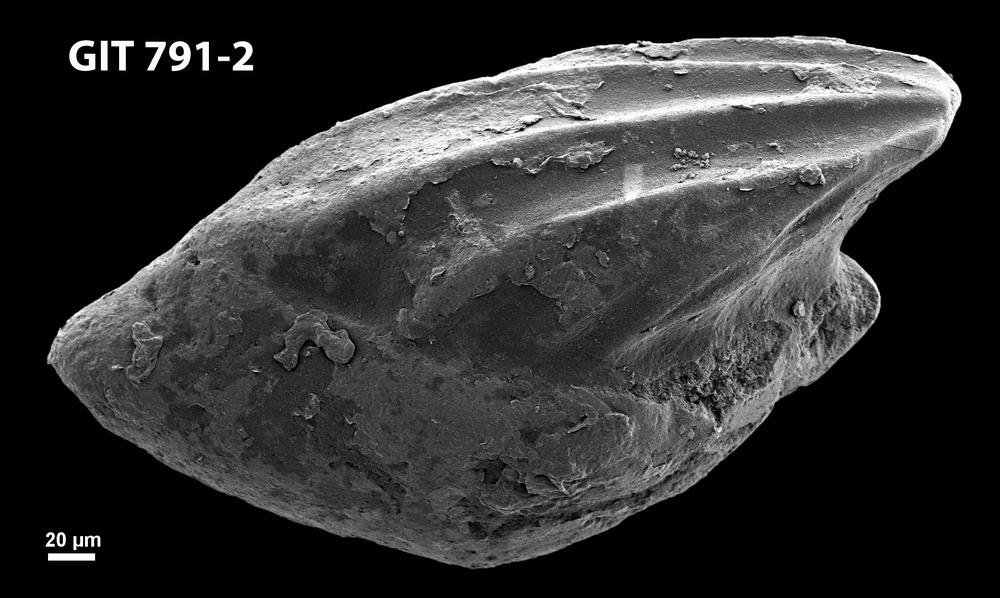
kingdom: Animalia
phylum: Chordata
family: Loganelliidae
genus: Loganellia
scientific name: Loganellia Thelodus cuneatus
